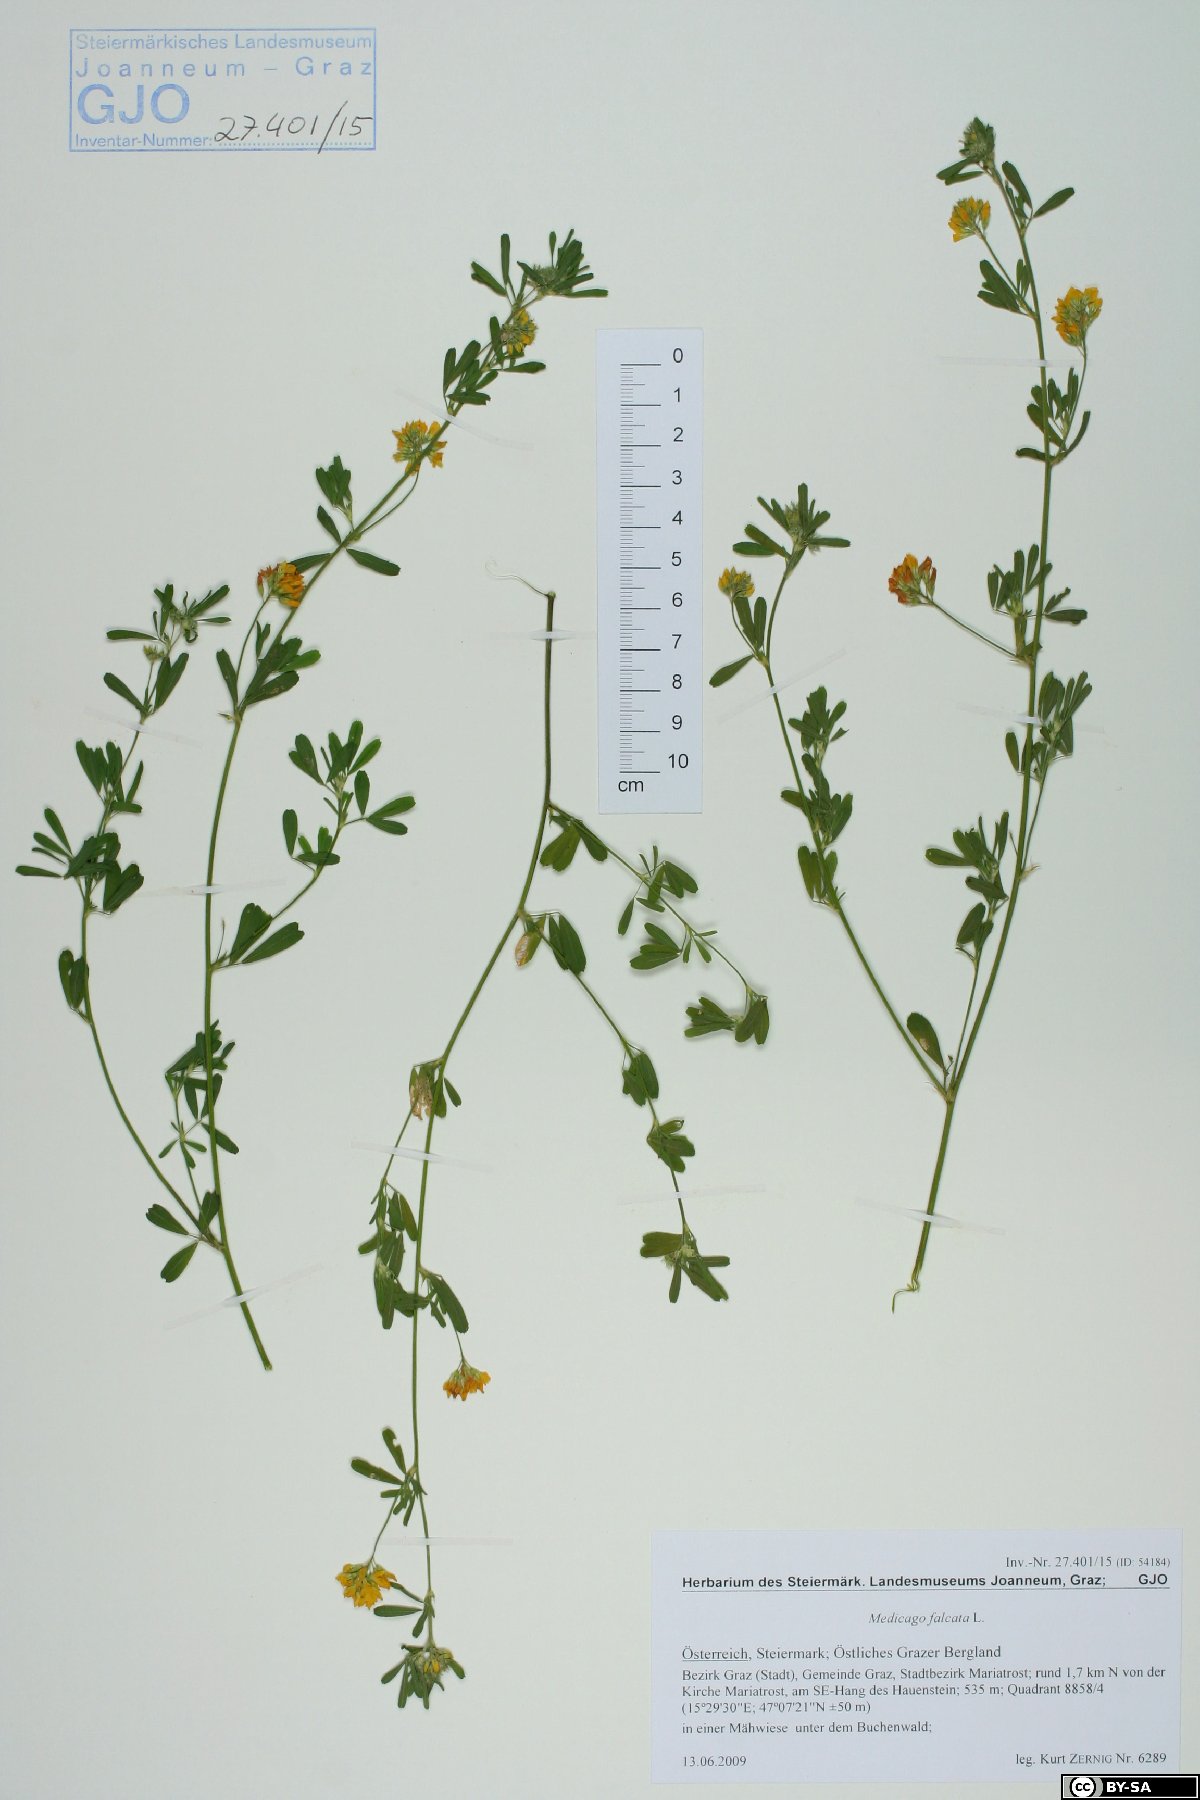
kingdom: Plantae
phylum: Tracheophyta
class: Magnoliopsida
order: Fabales
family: Fabaceae
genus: Medicago
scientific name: Medicago falcata
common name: Sickle medick
